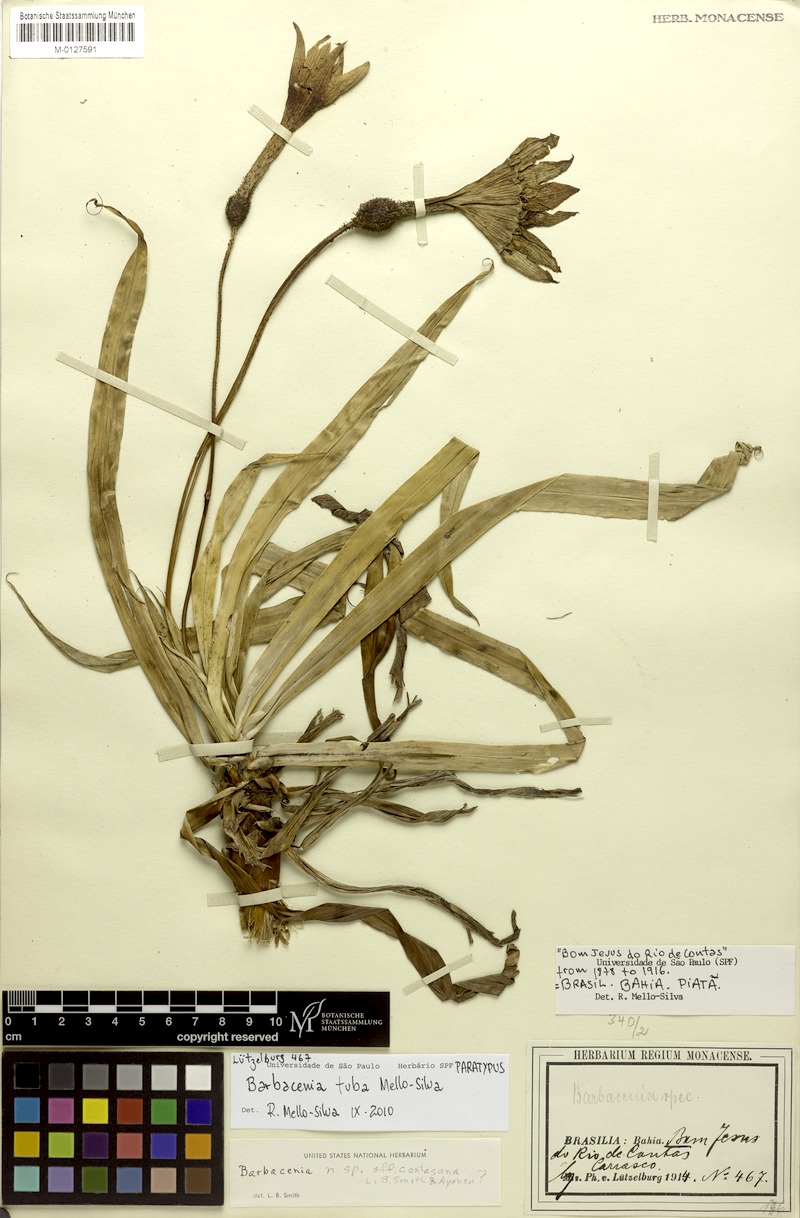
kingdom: Plantae
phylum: Tracheophyta
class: Liliopsida
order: Pandanales
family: Velloziaceae
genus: Barbacenia
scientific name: Barbacenia tuba
